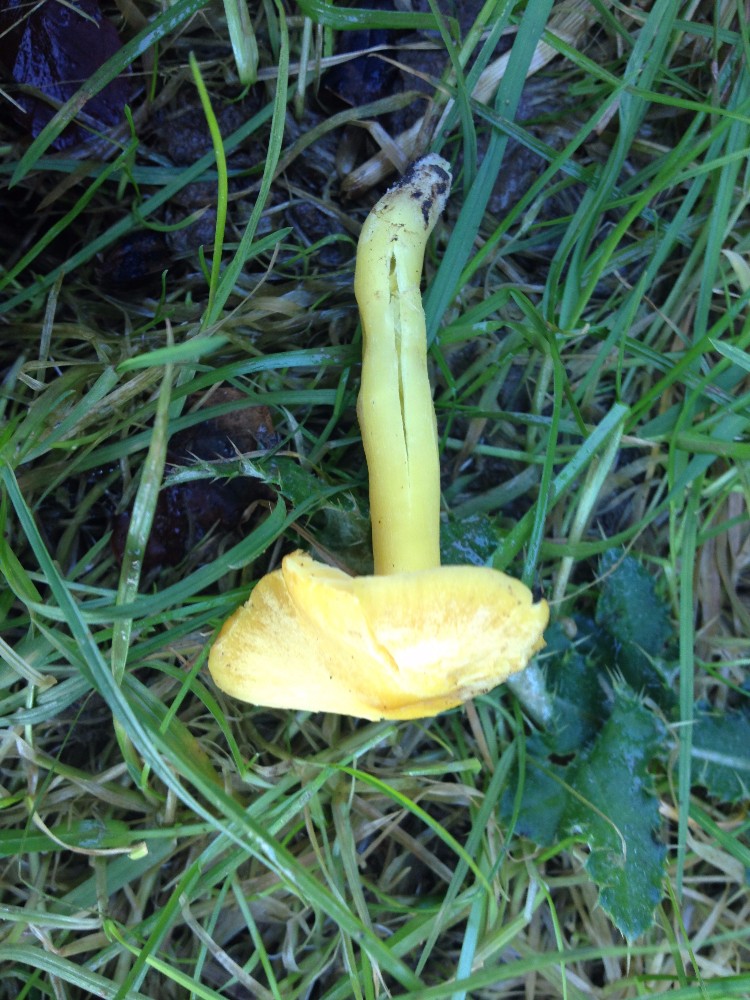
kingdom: Fungi
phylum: Basidiomycota
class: Agaricomycetes
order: Agaricales
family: Hygrophoraceae
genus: Hygrocybe
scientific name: Hygrocybe chlorophana
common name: gul vokshat
